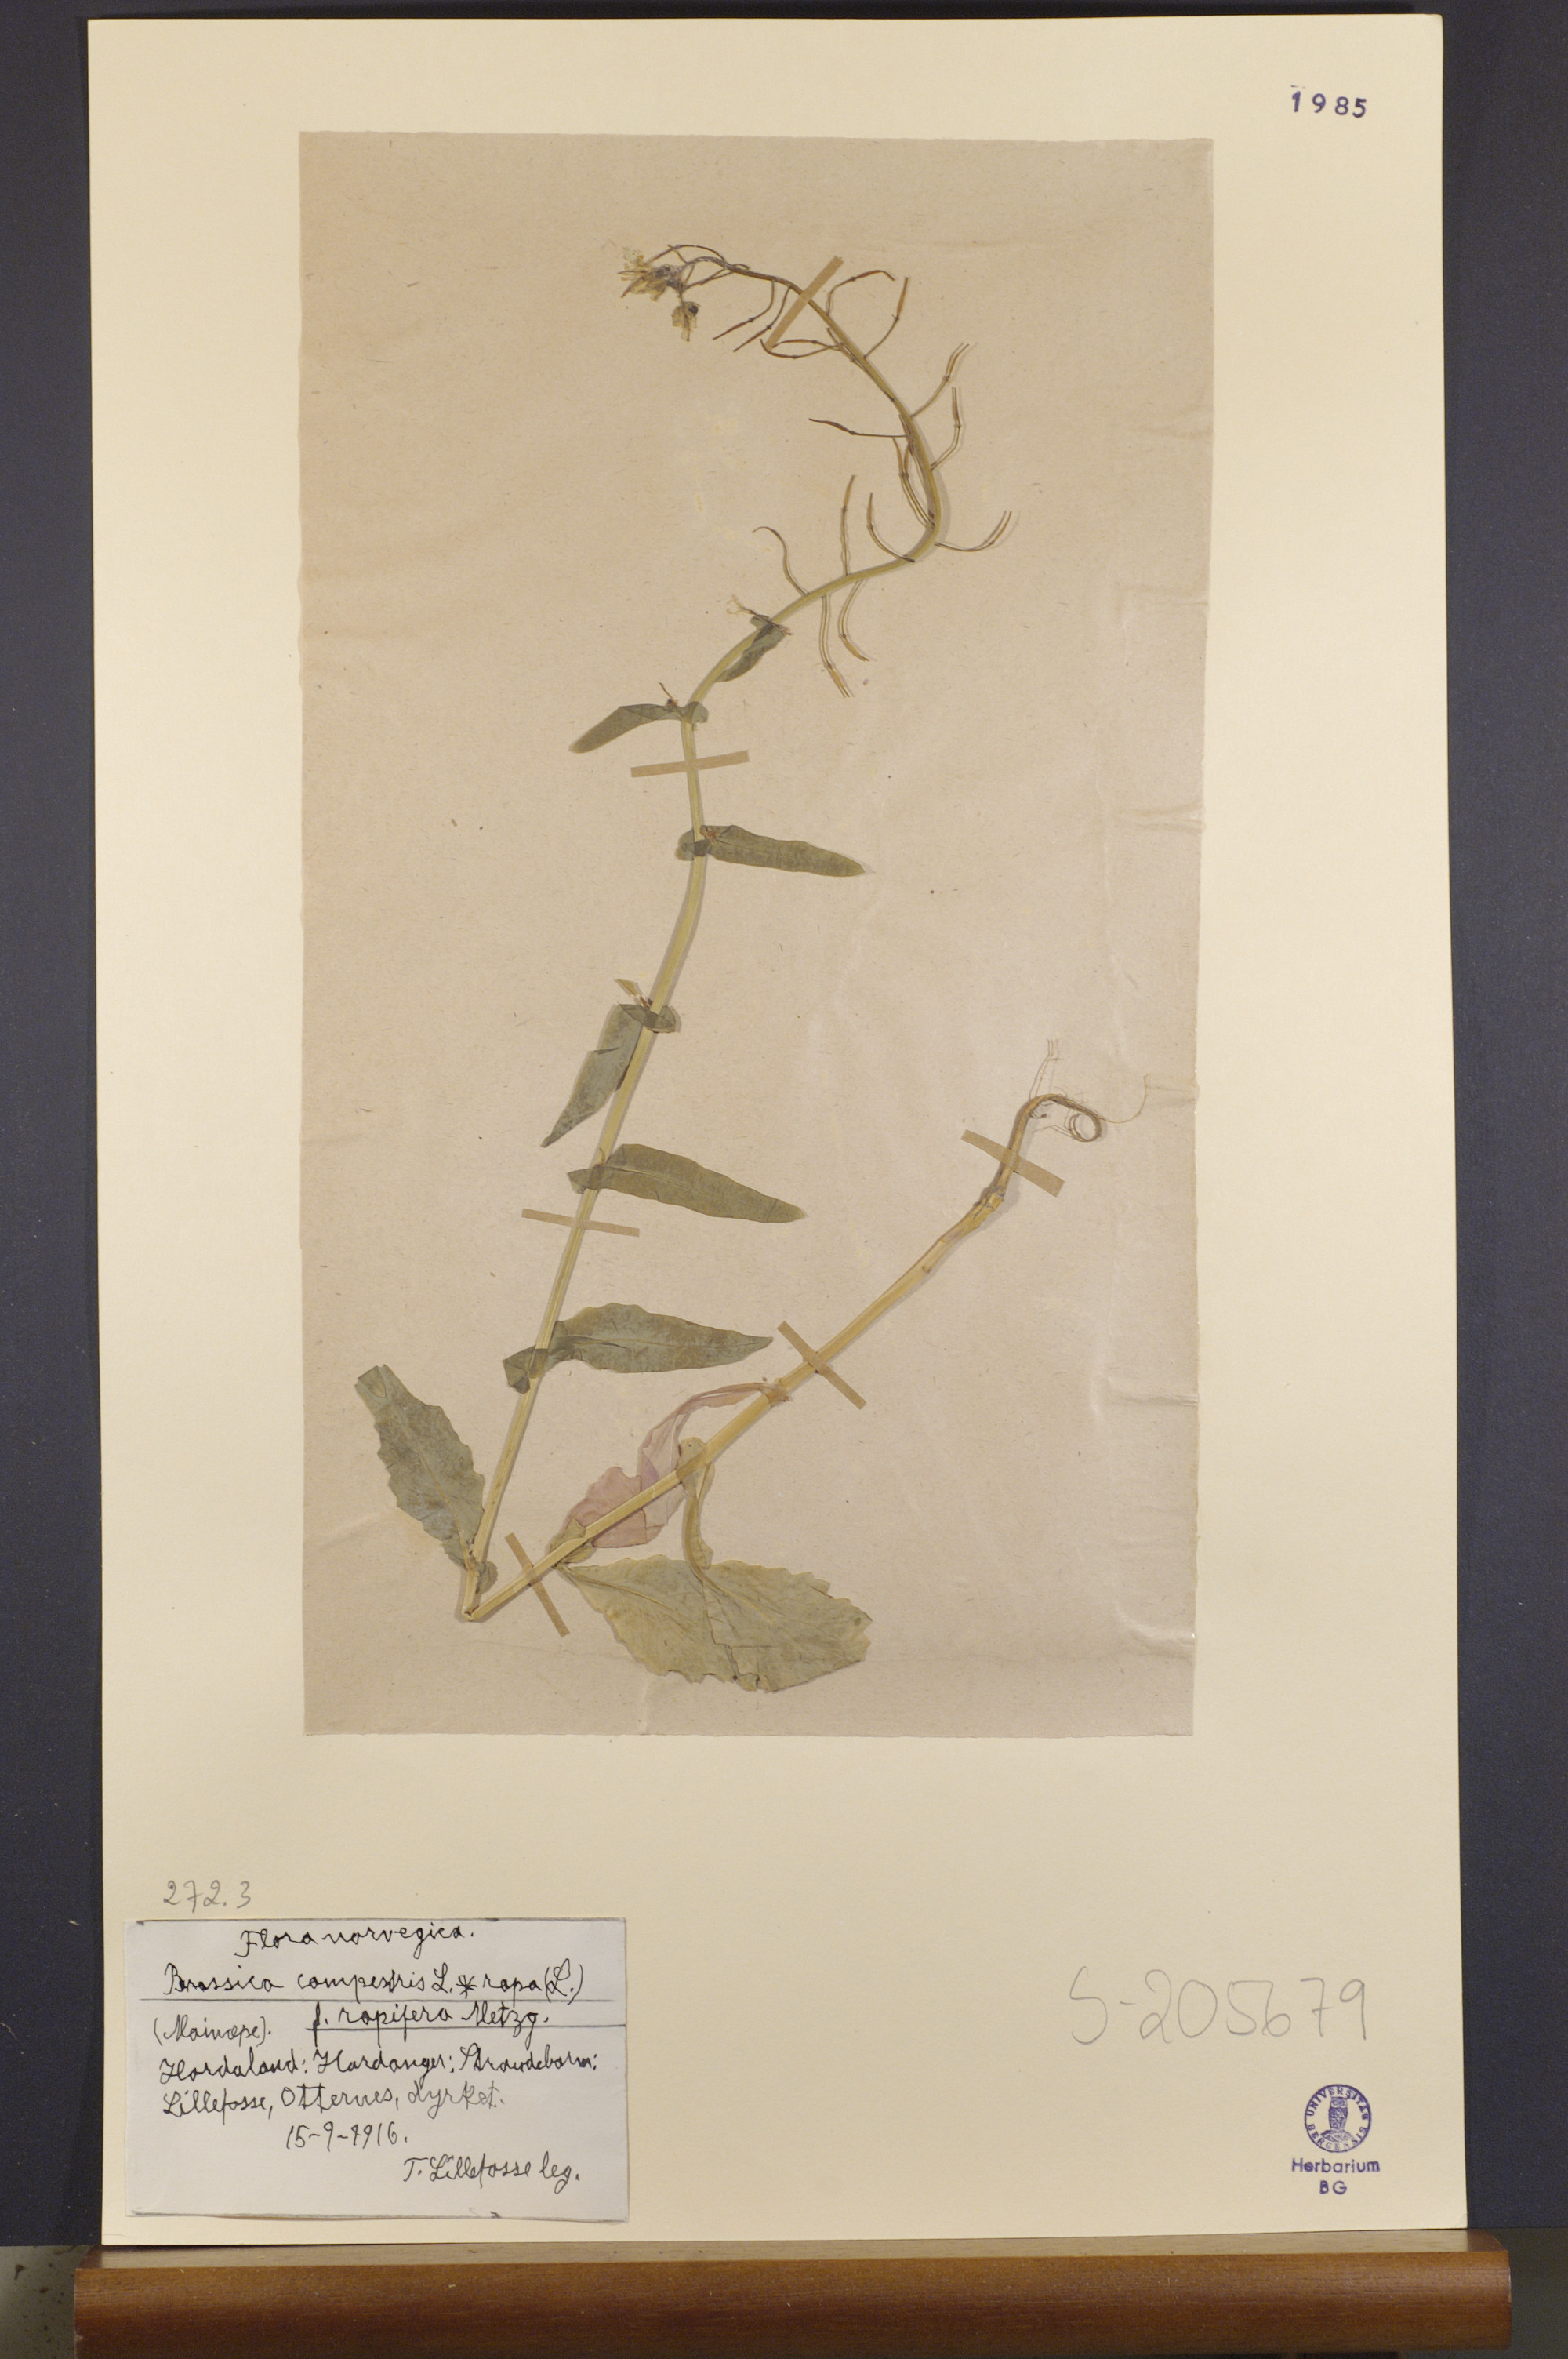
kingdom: Plantae
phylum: Tracheophyta
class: Magnoliopsida
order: Brassicales
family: Brassicaceae
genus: Brassica
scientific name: Brassica rapa
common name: Field mustard
